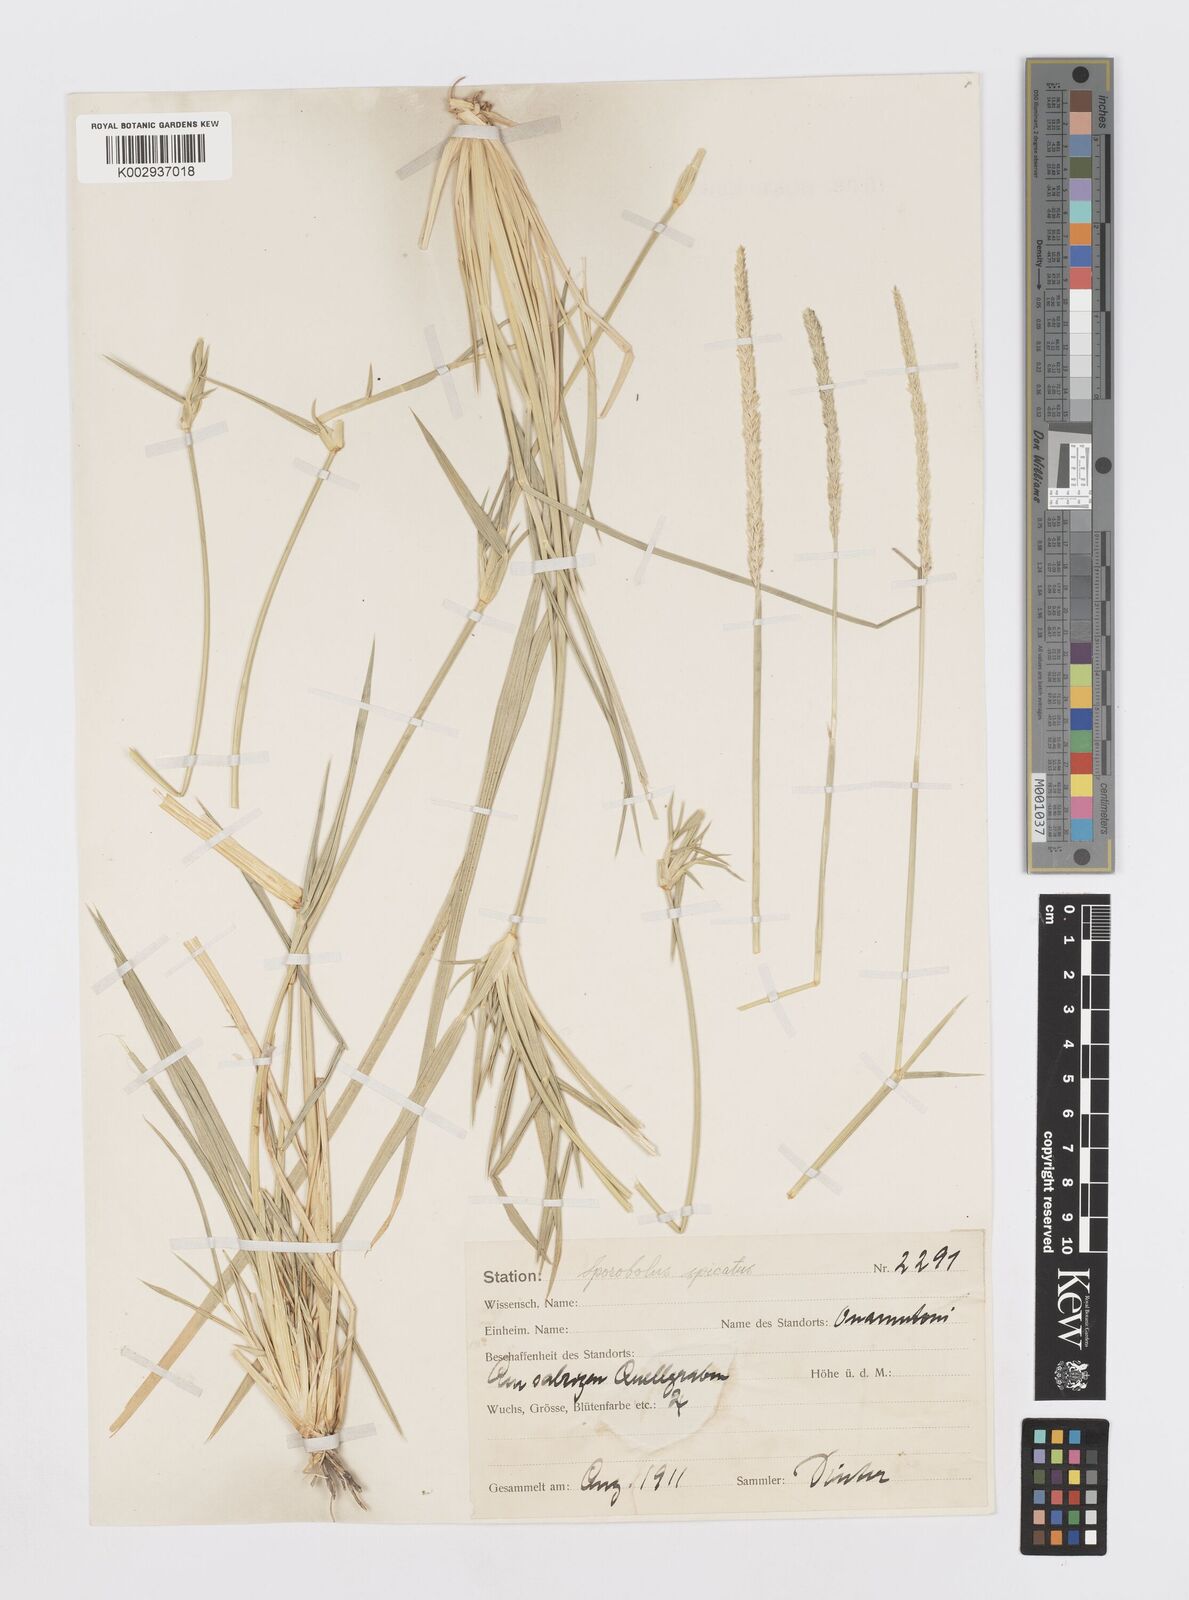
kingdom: Plantae
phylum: Tracheophyta
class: Liliopsida
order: Poales
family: Poaceae
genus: Sporobolus
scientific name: Sporobolus spicatus
